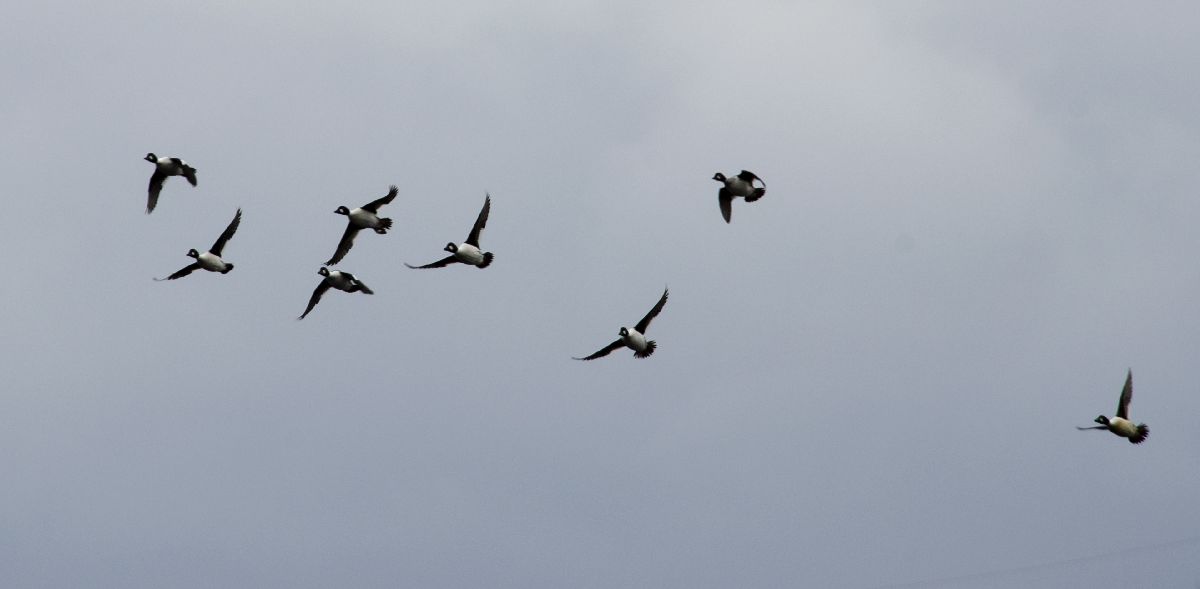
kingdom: Animalia
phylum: Chordata
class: Aves
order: Anseriformes
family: Anatidae
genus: Bucephala
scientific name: Bucephala clangula
